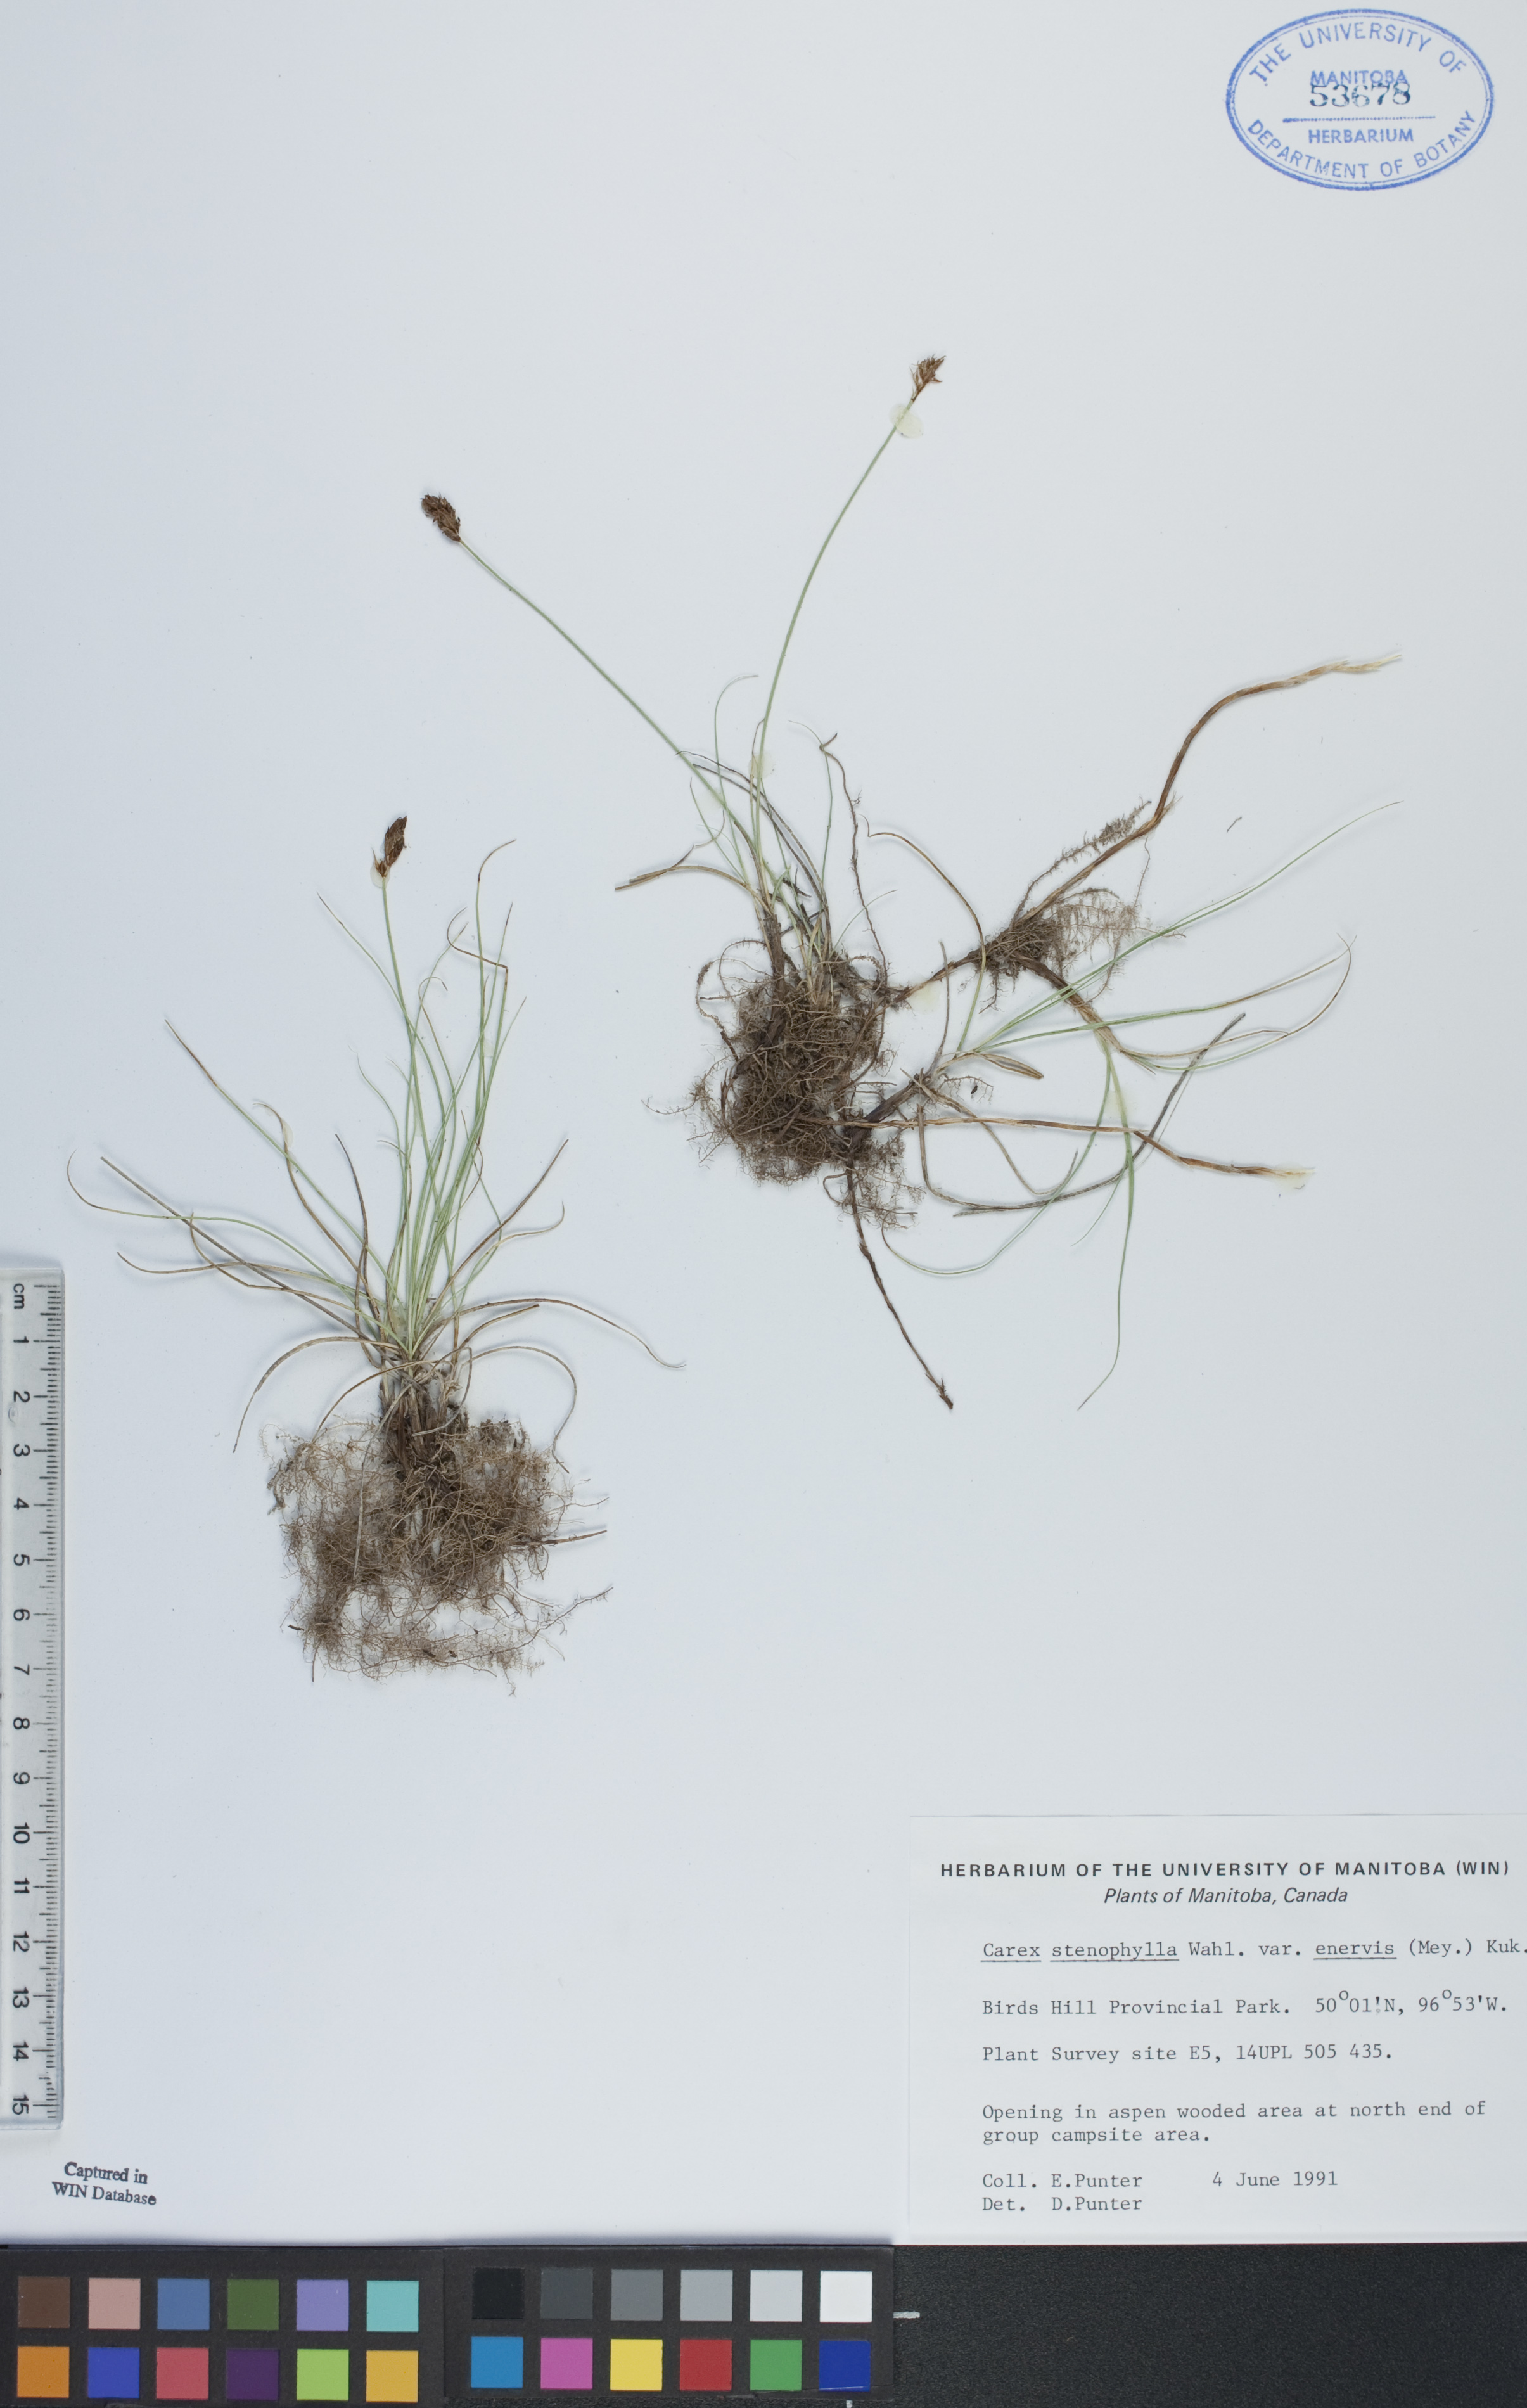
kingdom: Plantae
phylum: Tracheophyta
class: Liliopsida
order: Poales
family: Cyperaceae
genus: Carex
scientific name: Carex enervis
